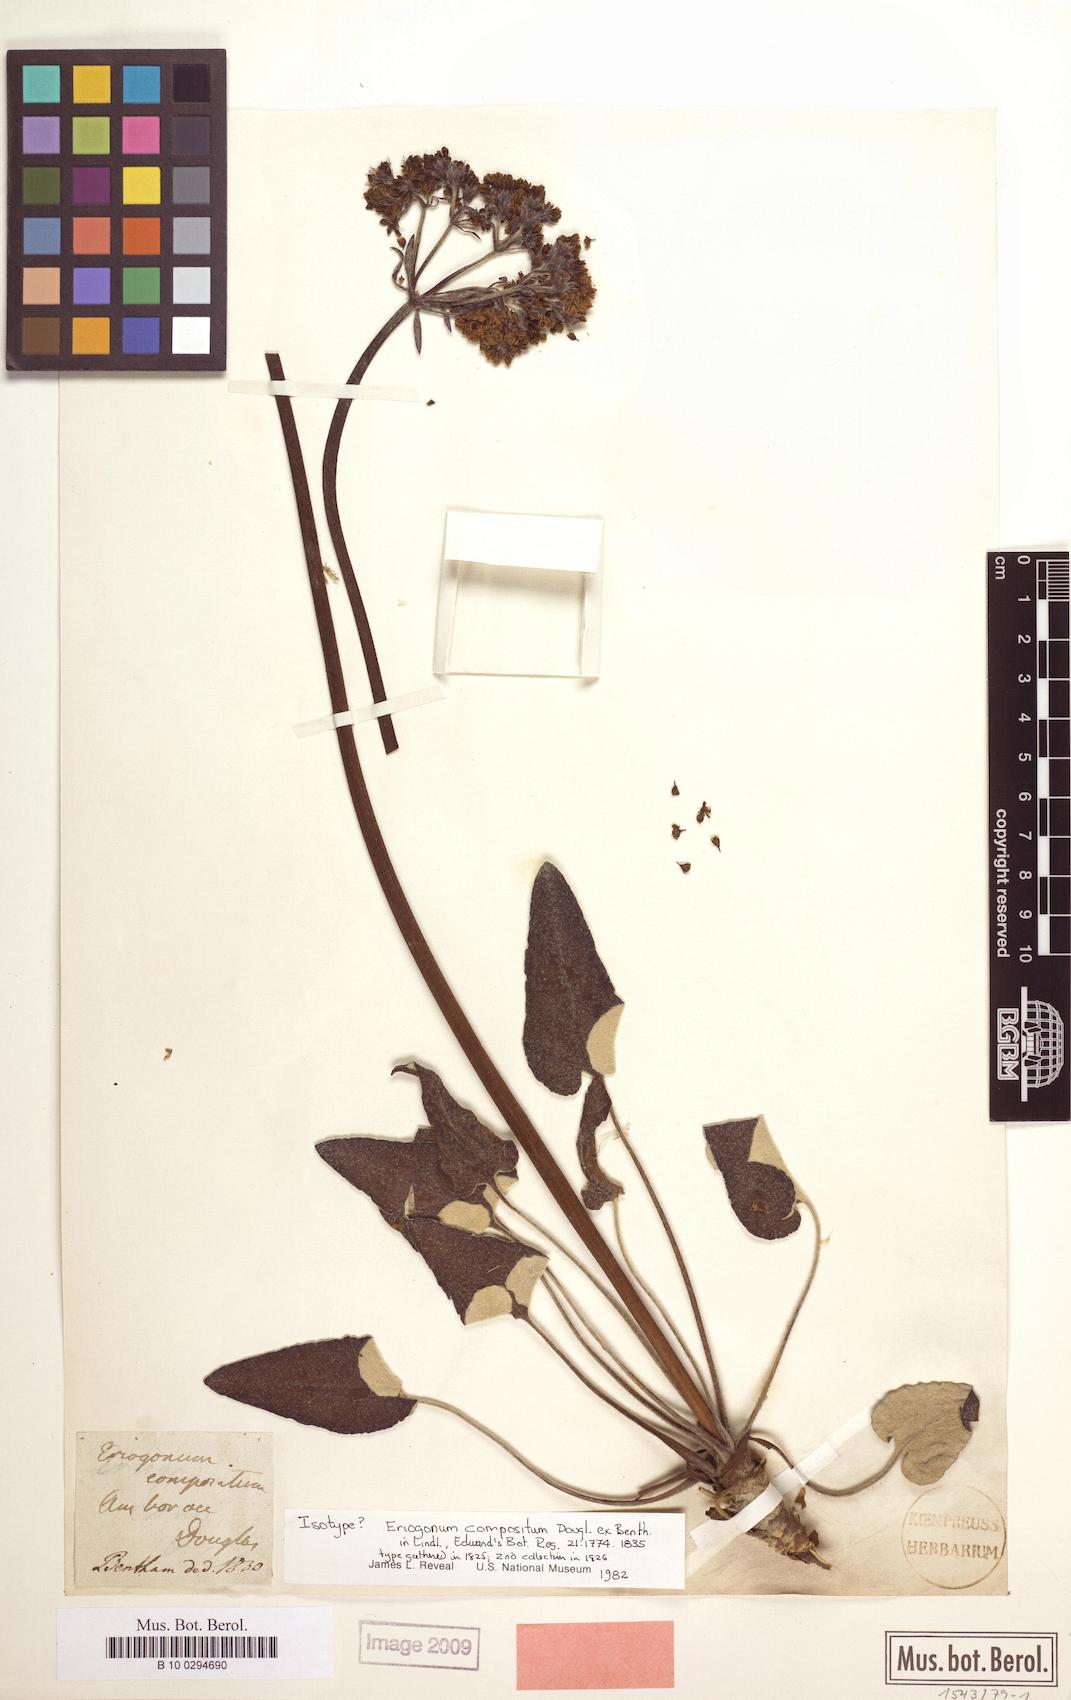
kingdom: Plantae
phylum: Tracheophyta
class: Magnoliopsida
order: Caryophyllales
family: Polygonaceae
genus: Eriogonum
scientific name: Eriogonum compositum
